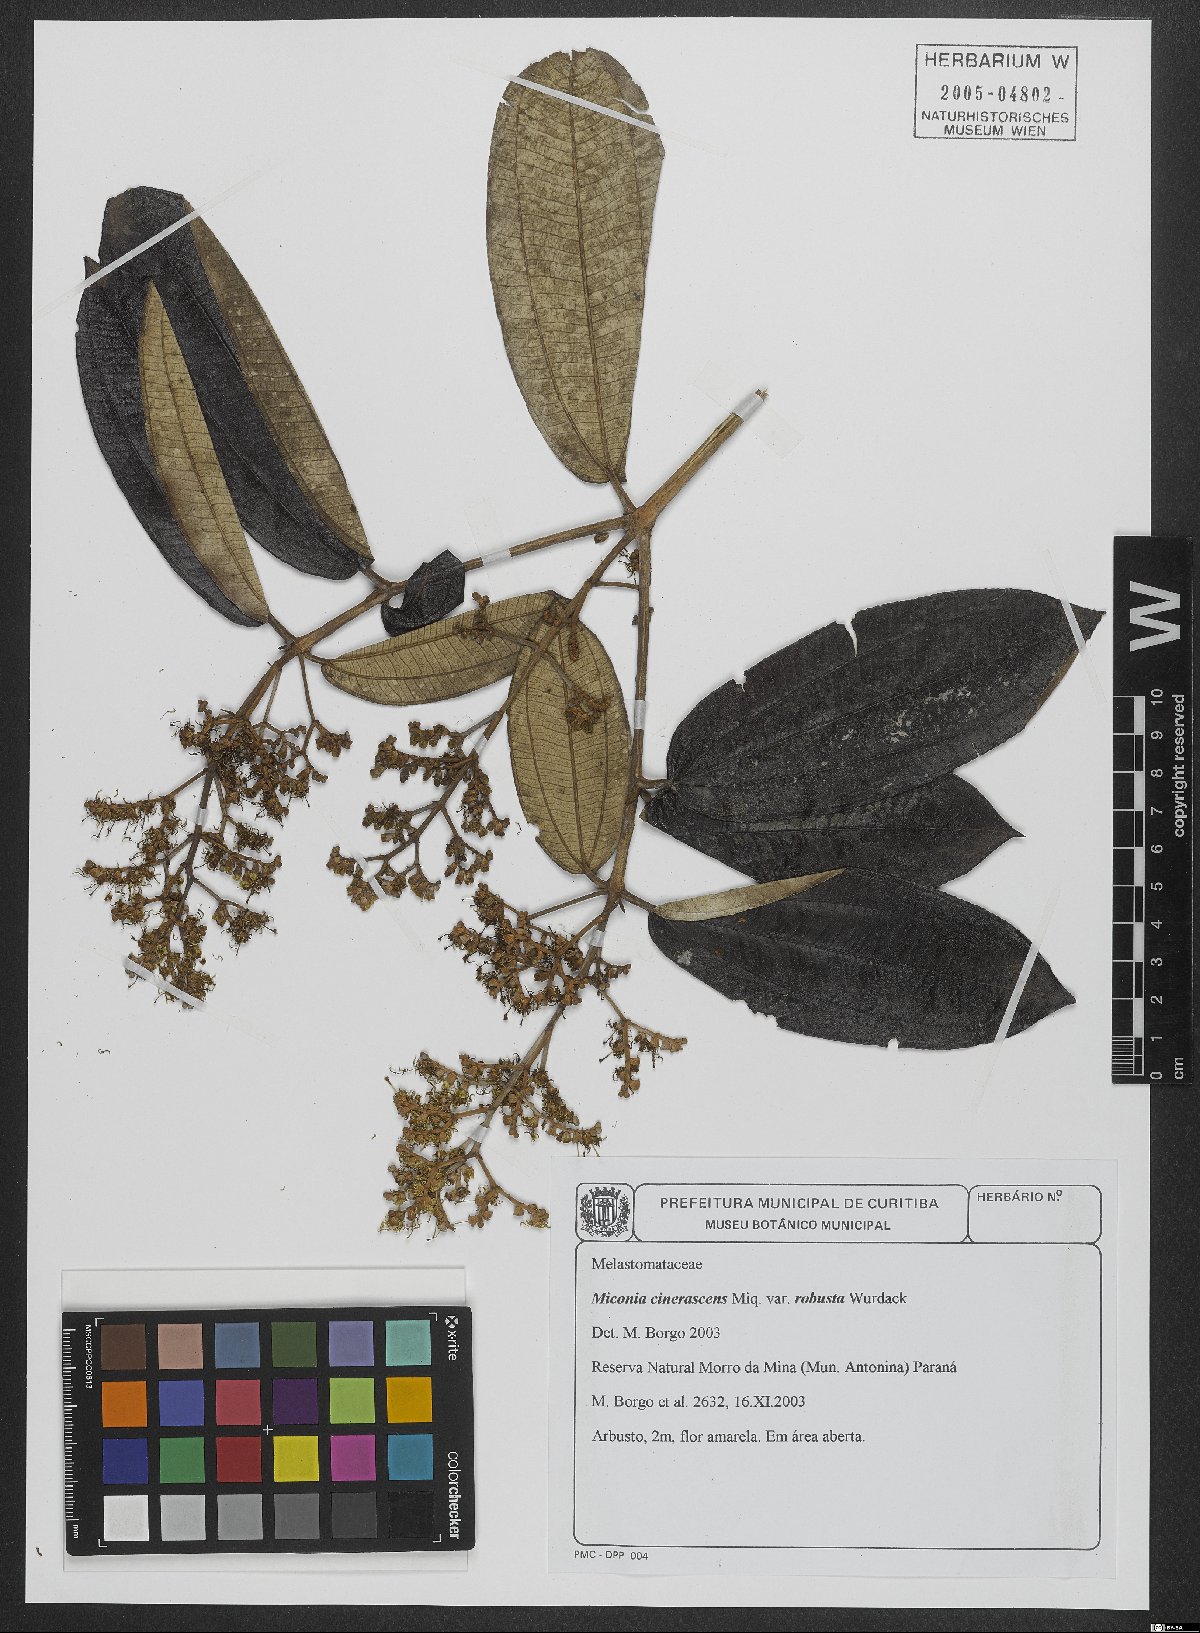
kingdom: Plantae
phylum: Tracheophyta
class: Magnoliopsida
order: Myrtales
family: Melastomataceae
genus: Miconia
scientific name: Miconia cinerascens
